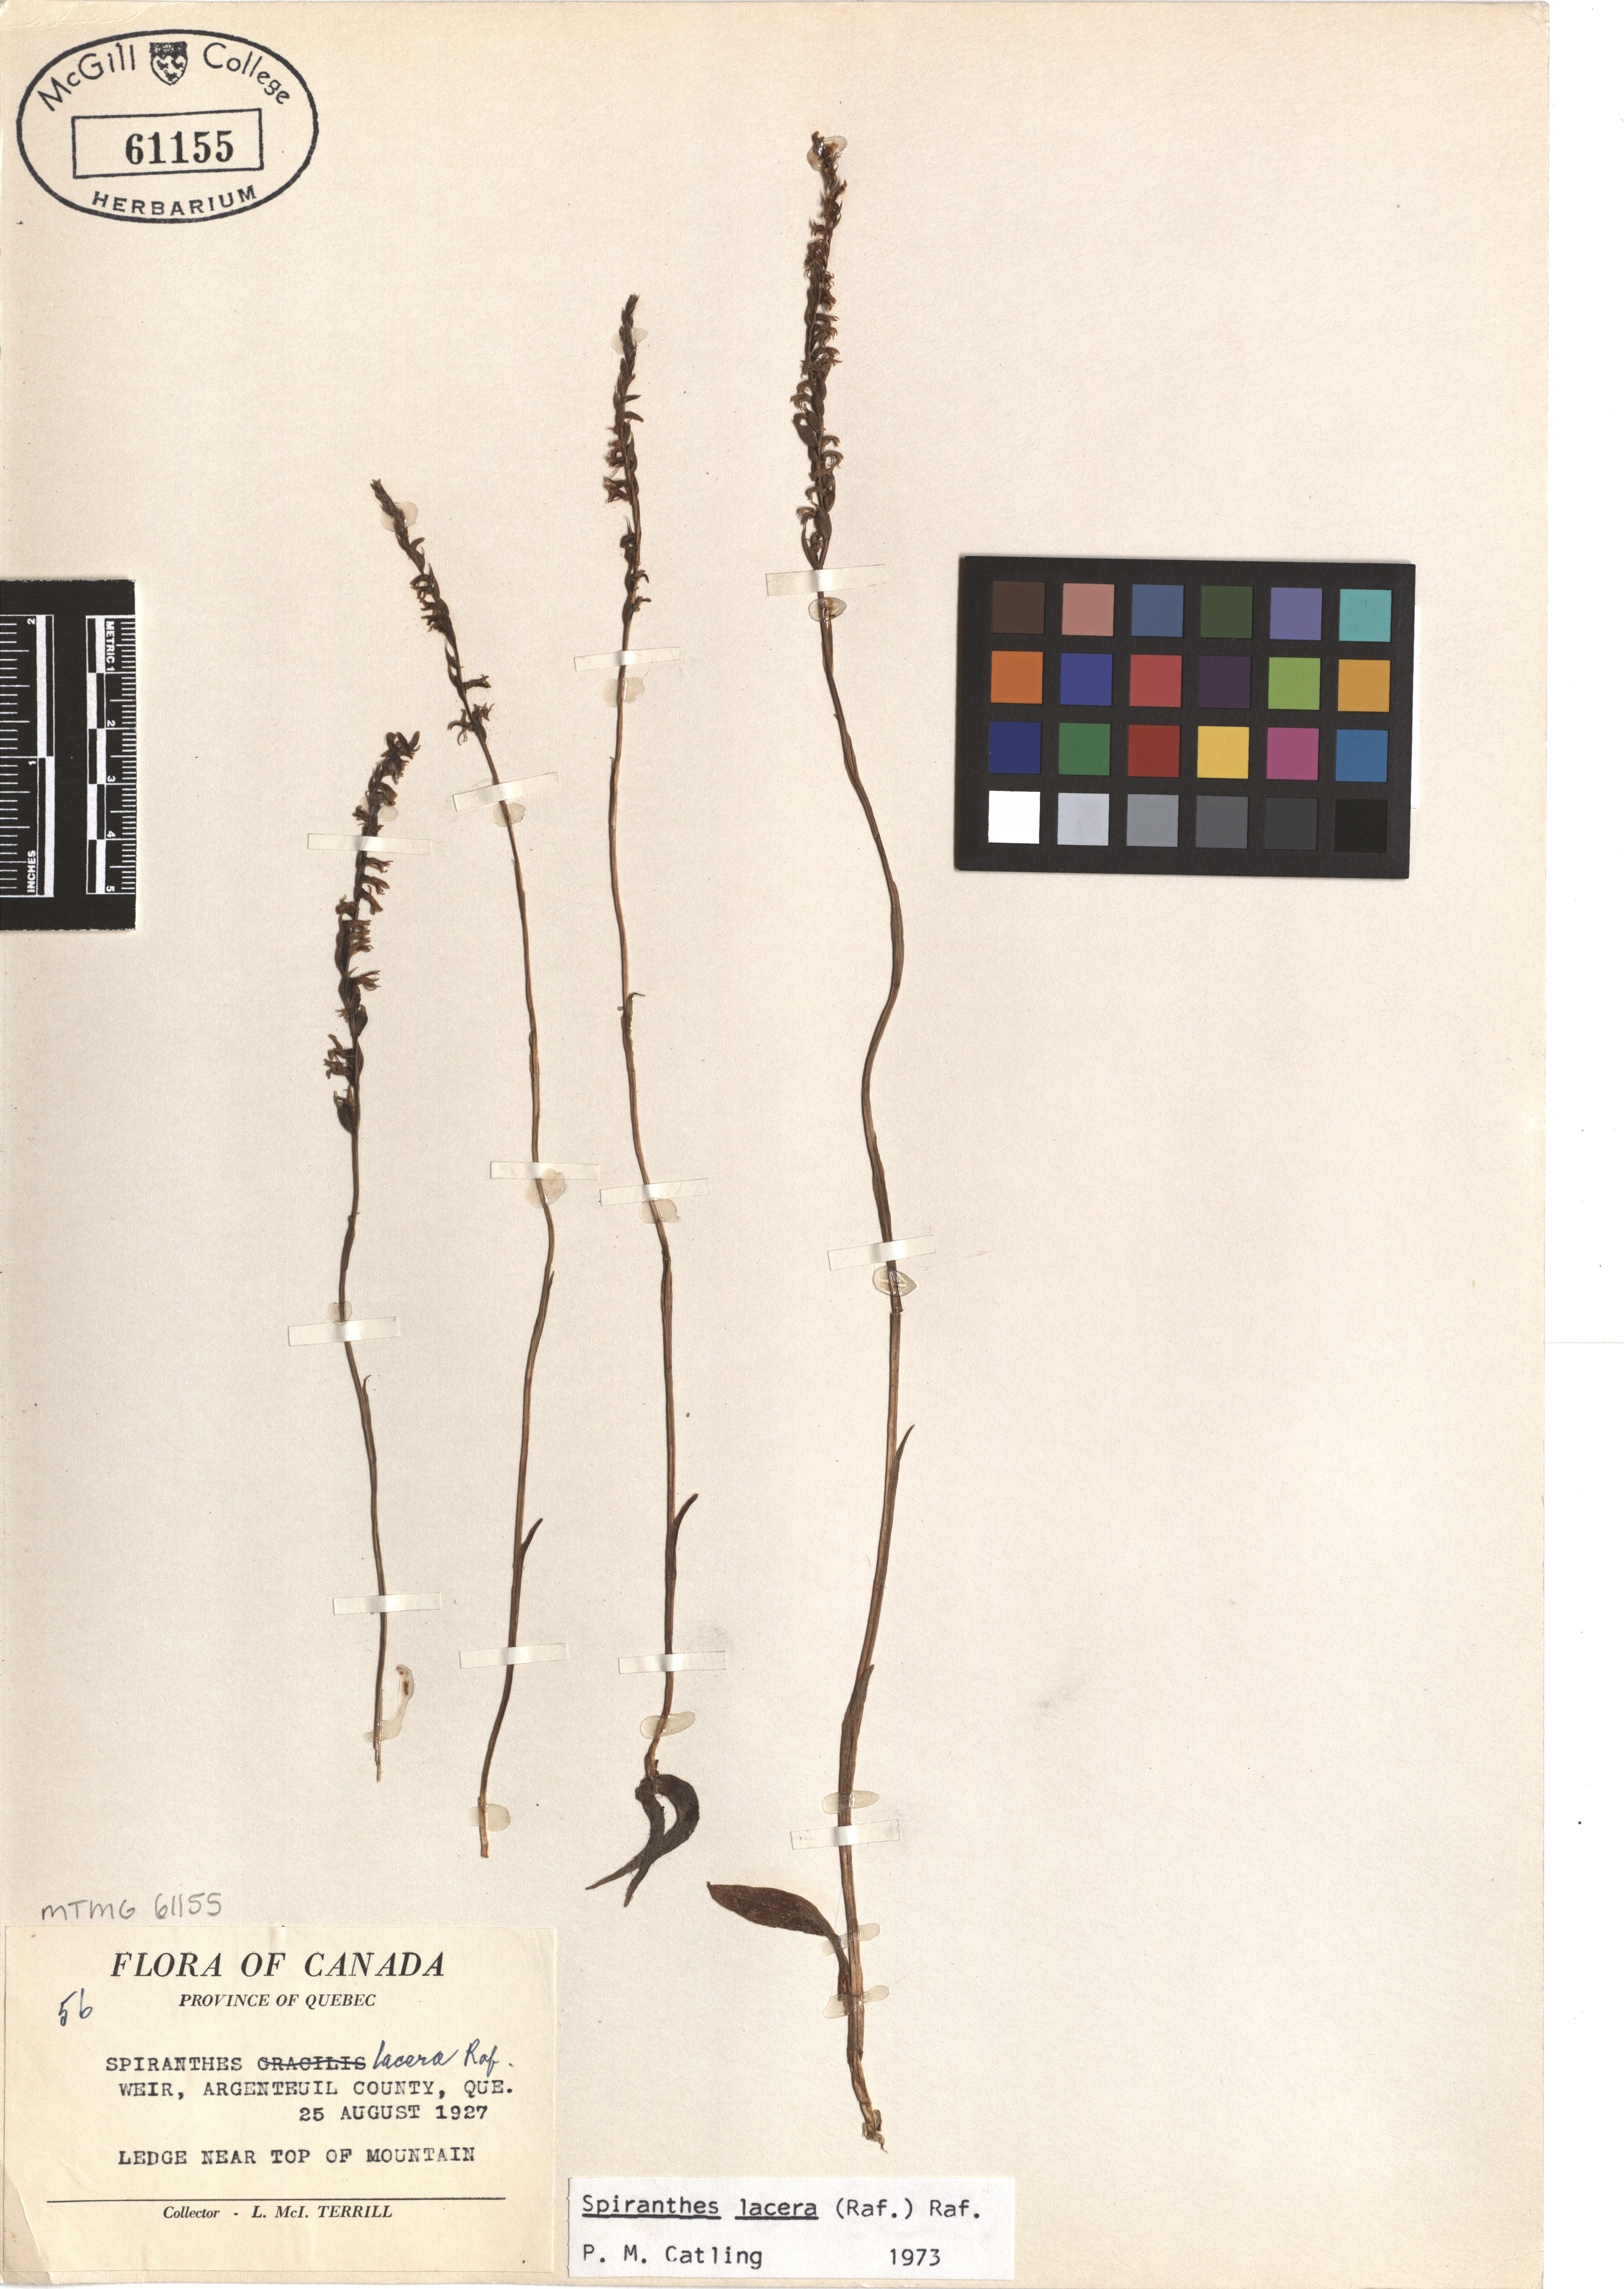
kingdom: Plantae
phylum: Tracheophyta
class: Liliopsida
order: Asparagales
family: Orchidaceae
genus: Spiranthes
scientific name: Spiranthes lacera
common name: Northern slender ladies'-tresses
